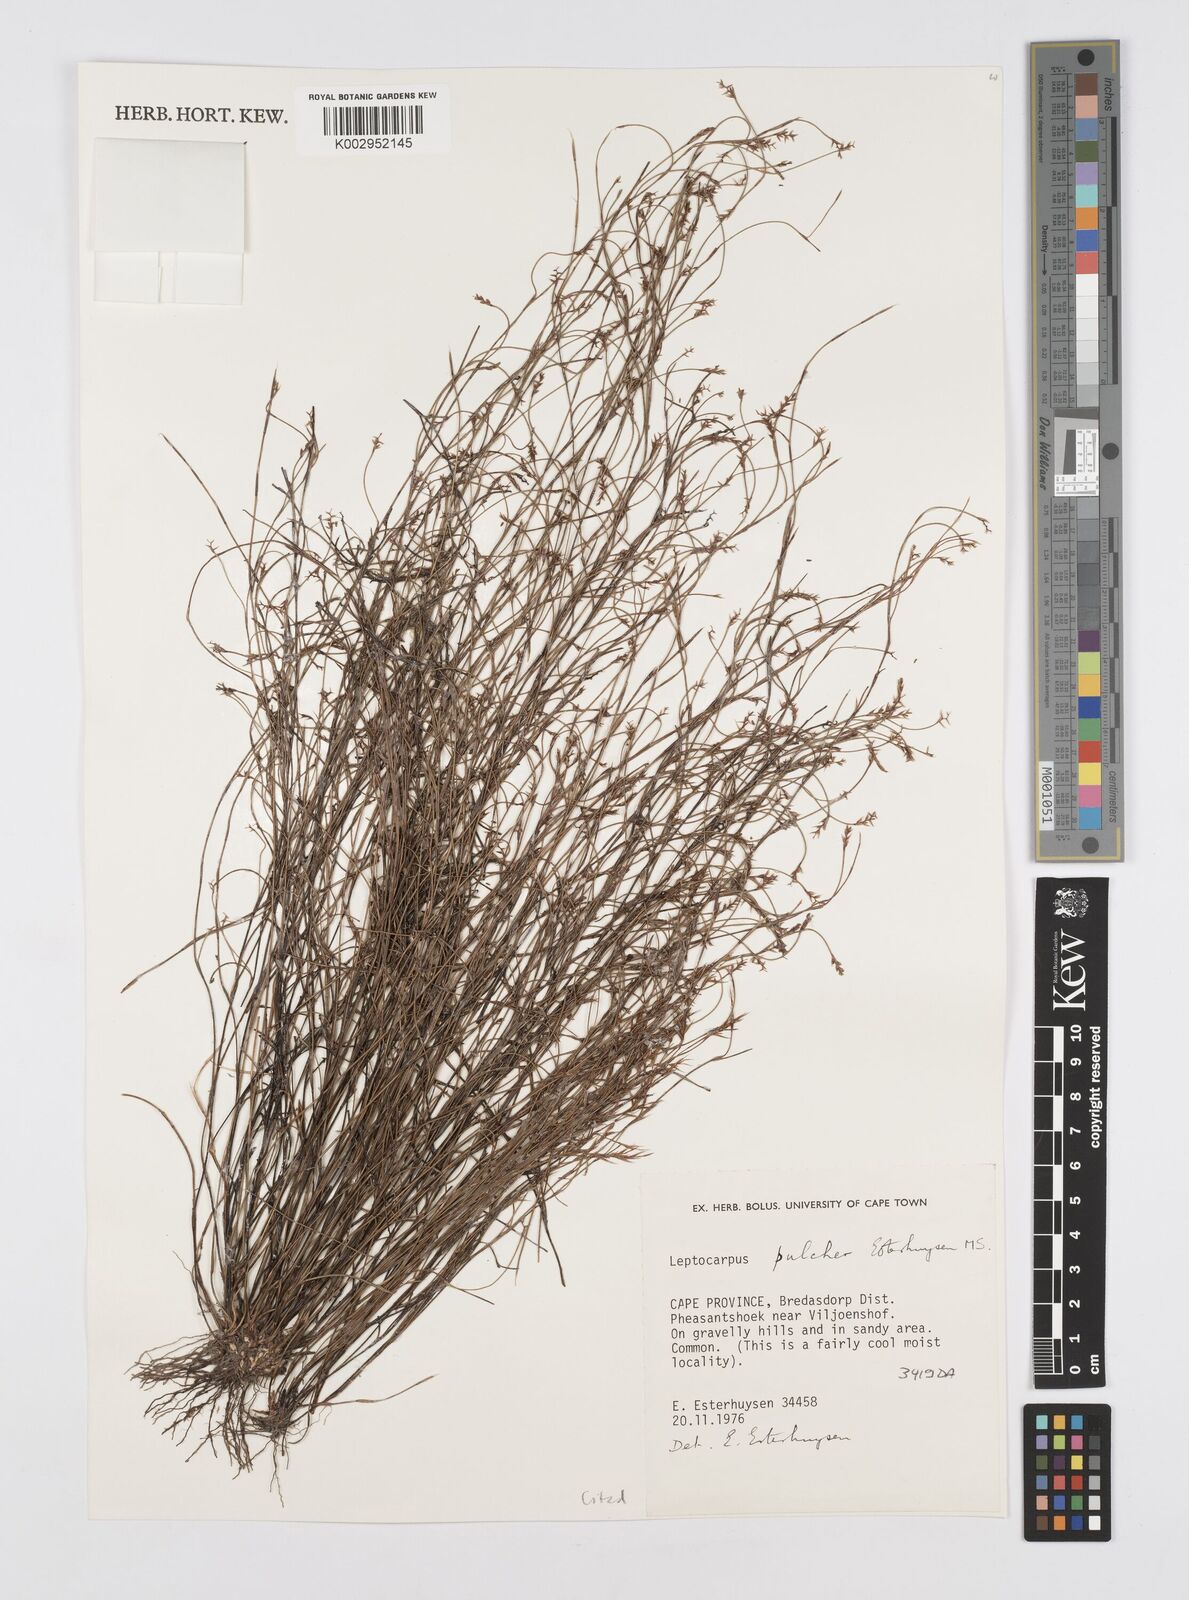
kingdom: Plantae
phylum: Tracheophyta
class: Liliopsida
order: Poales
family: Restionaceae
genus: Restio
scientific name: Restio pulcher
